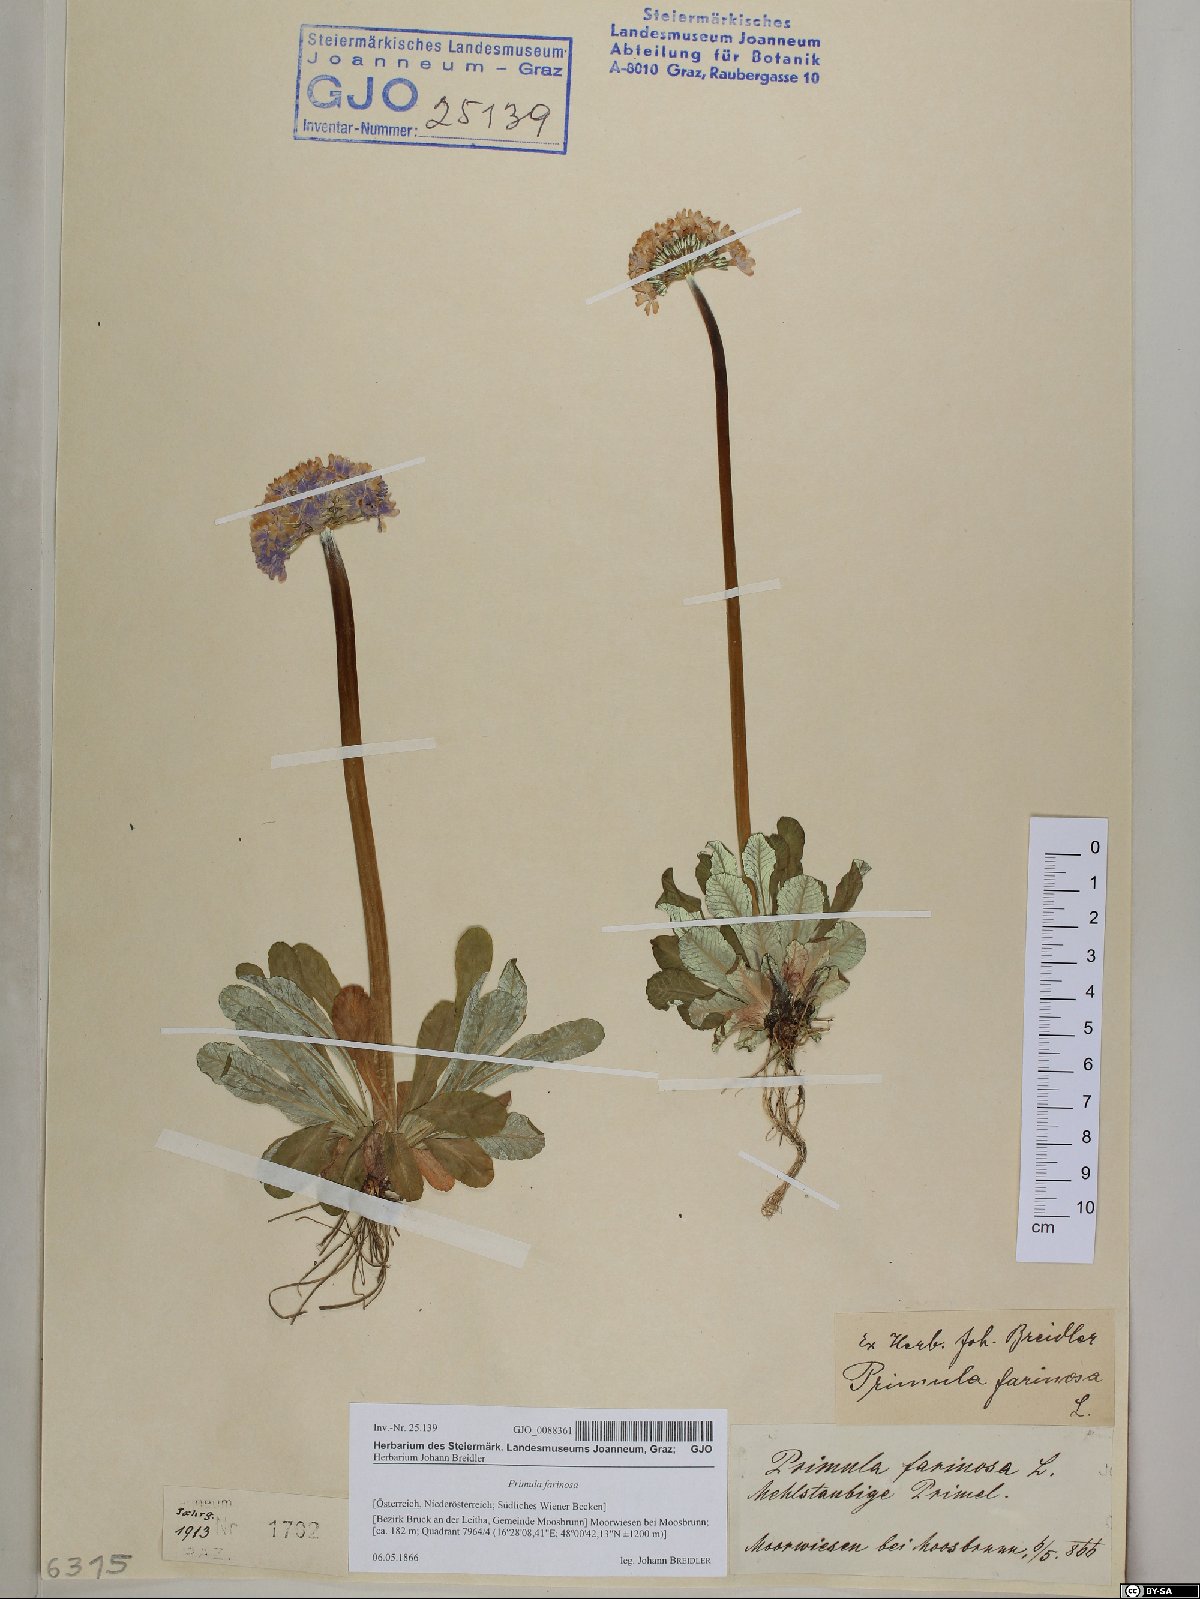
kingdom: Plantae
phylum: Tracheophyta
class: Magnoliopsida
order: Ericales
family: Primulaceae
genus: Primula
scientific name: Primula farinosa
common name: Bird's-eye primrose
